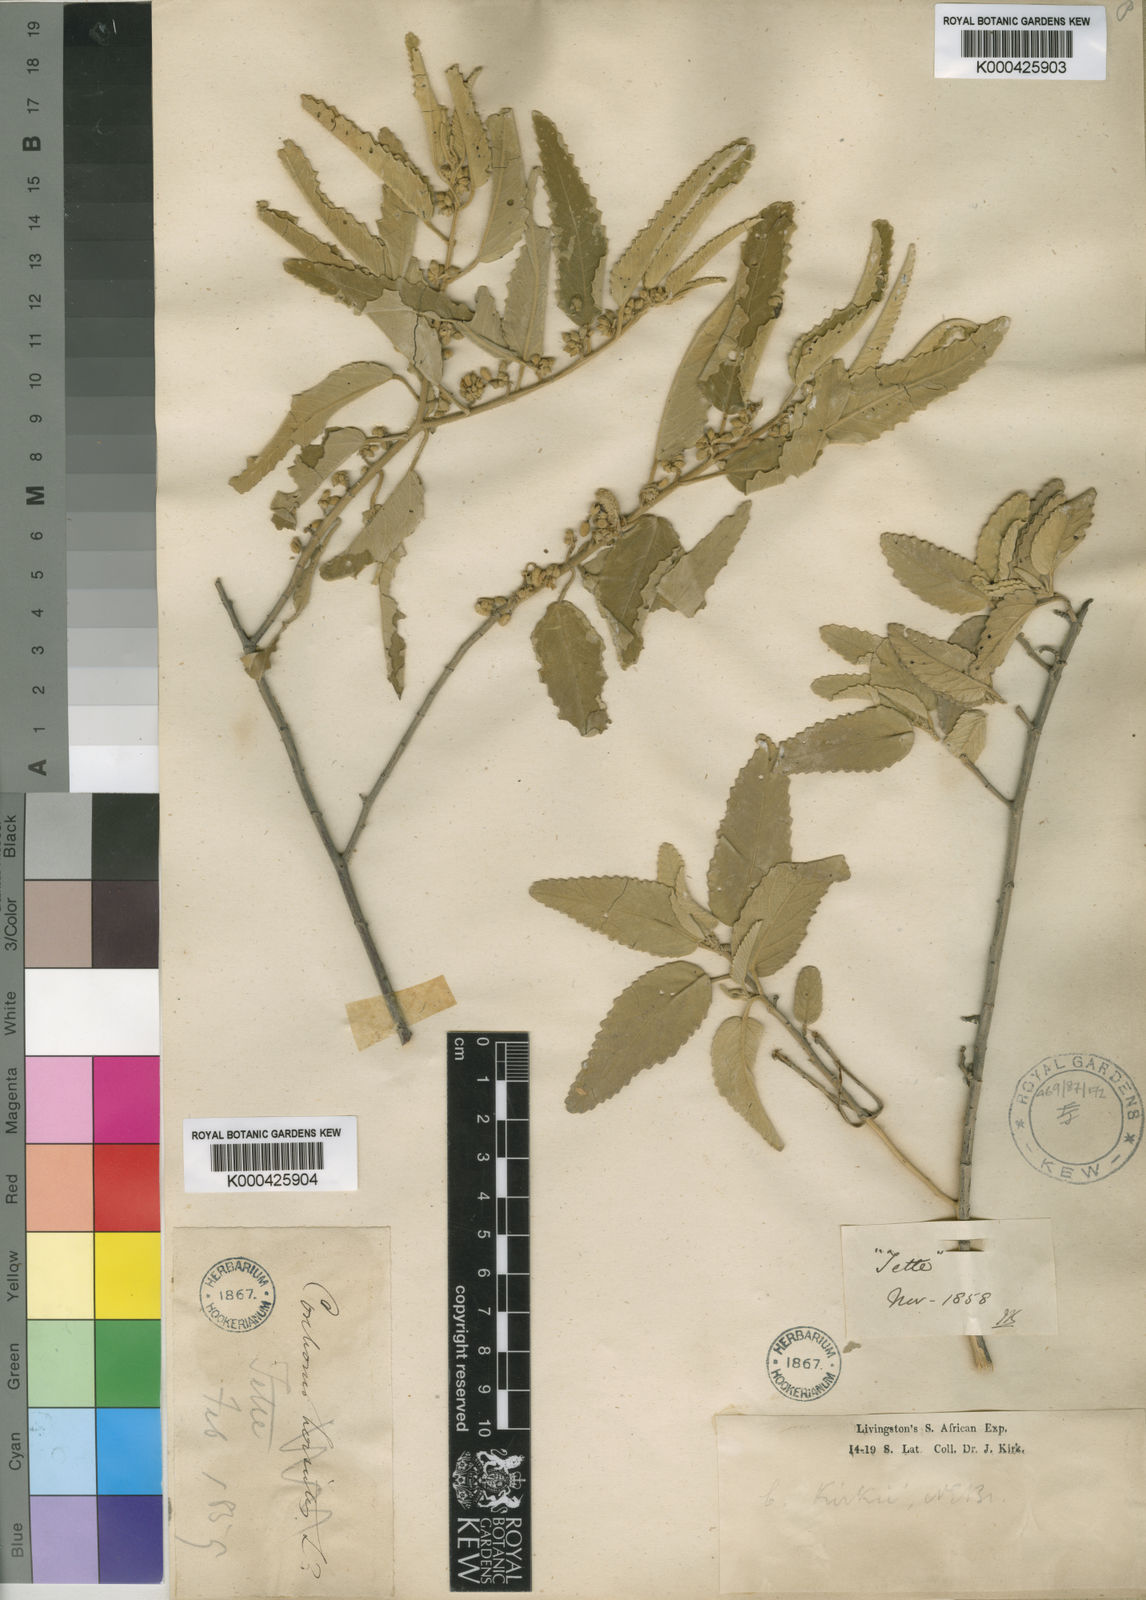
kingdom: Plantae
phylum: Tracheophyta
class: Magnoliopsida
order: Malvales
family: Malvaceae
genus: Corchorus
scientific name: Corchorus kirkii
